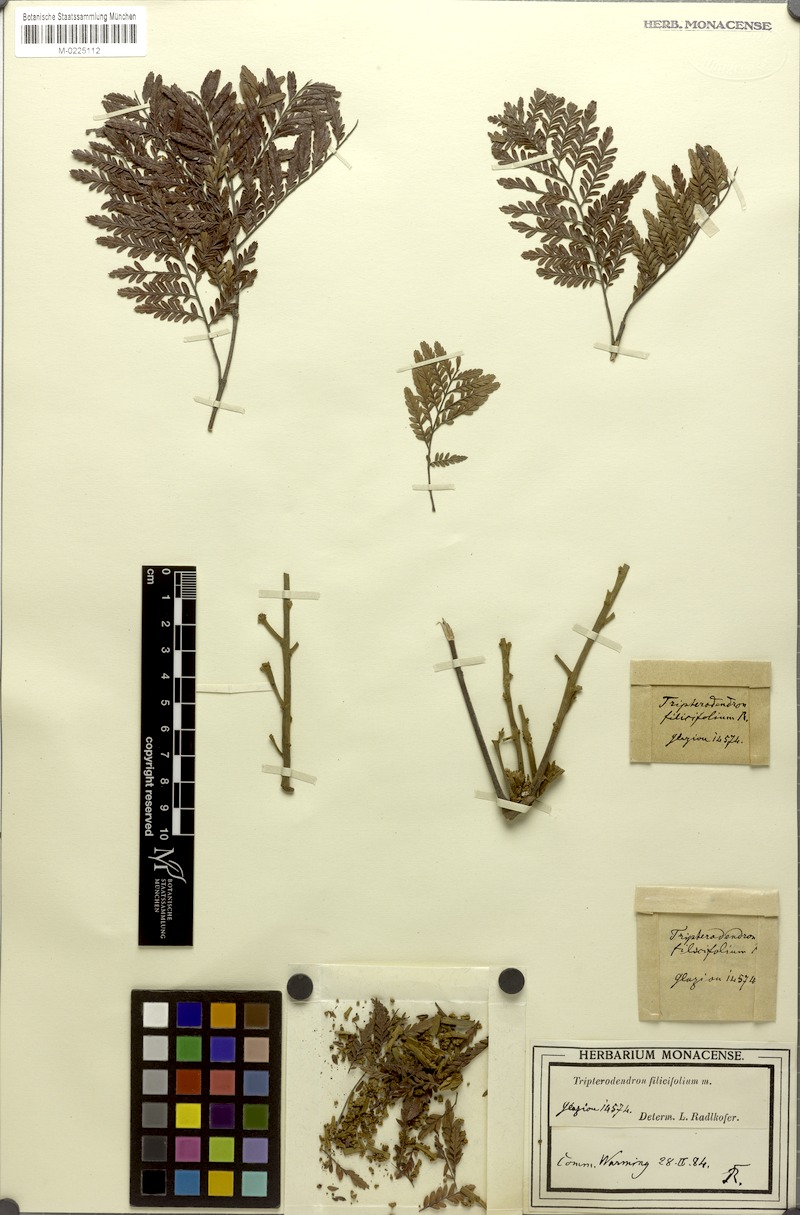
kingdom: Plantae
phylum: Tracheophyta
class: Magnoliopsida
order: Sapindales
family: Sapindaceae
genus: Tripterodendron
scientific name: Tripterodendron filicifolium
